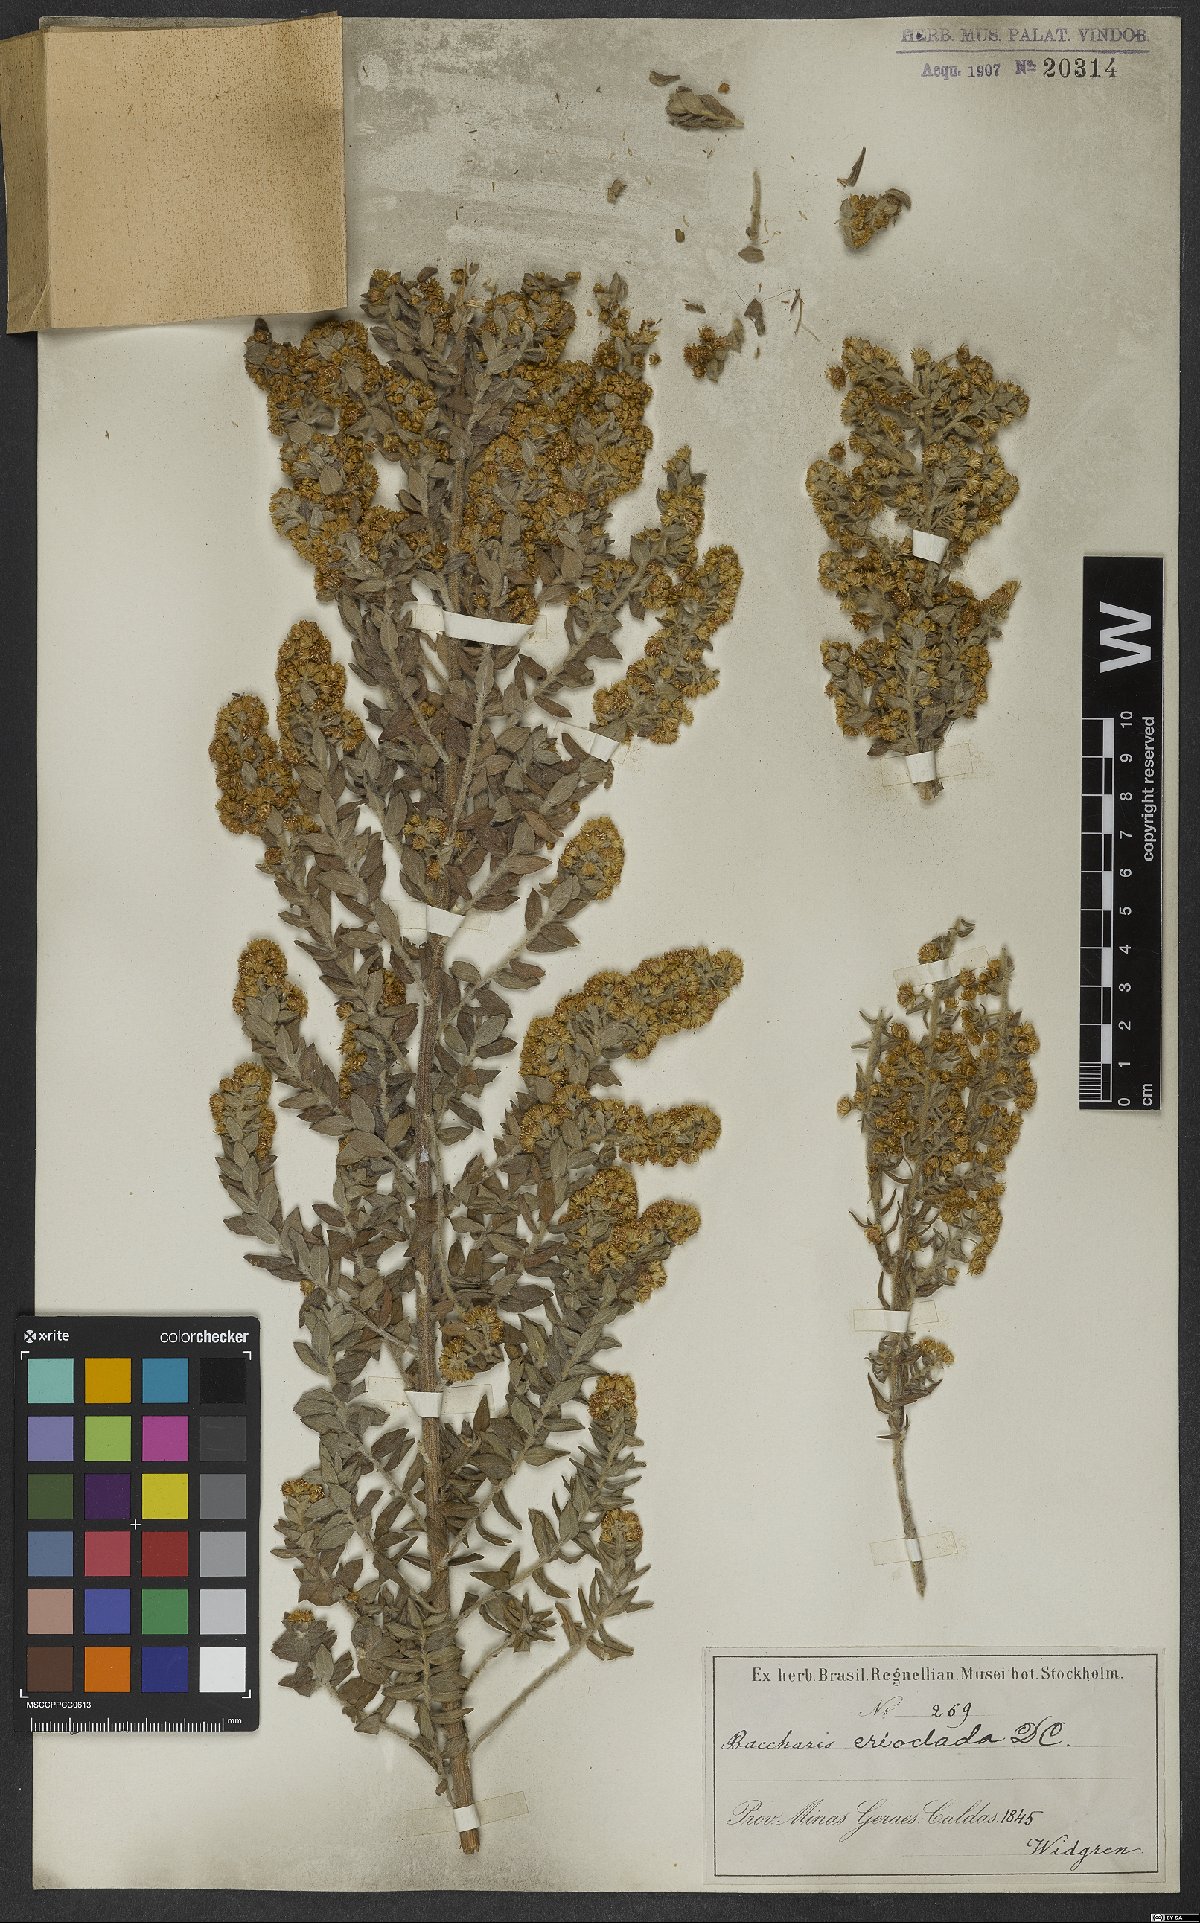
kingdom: Plantae
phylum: Tracheophyta
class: Magnoliopsida
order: Asterales
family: Asteraceae
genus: Baccharis
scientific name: Baccharis erioclada
